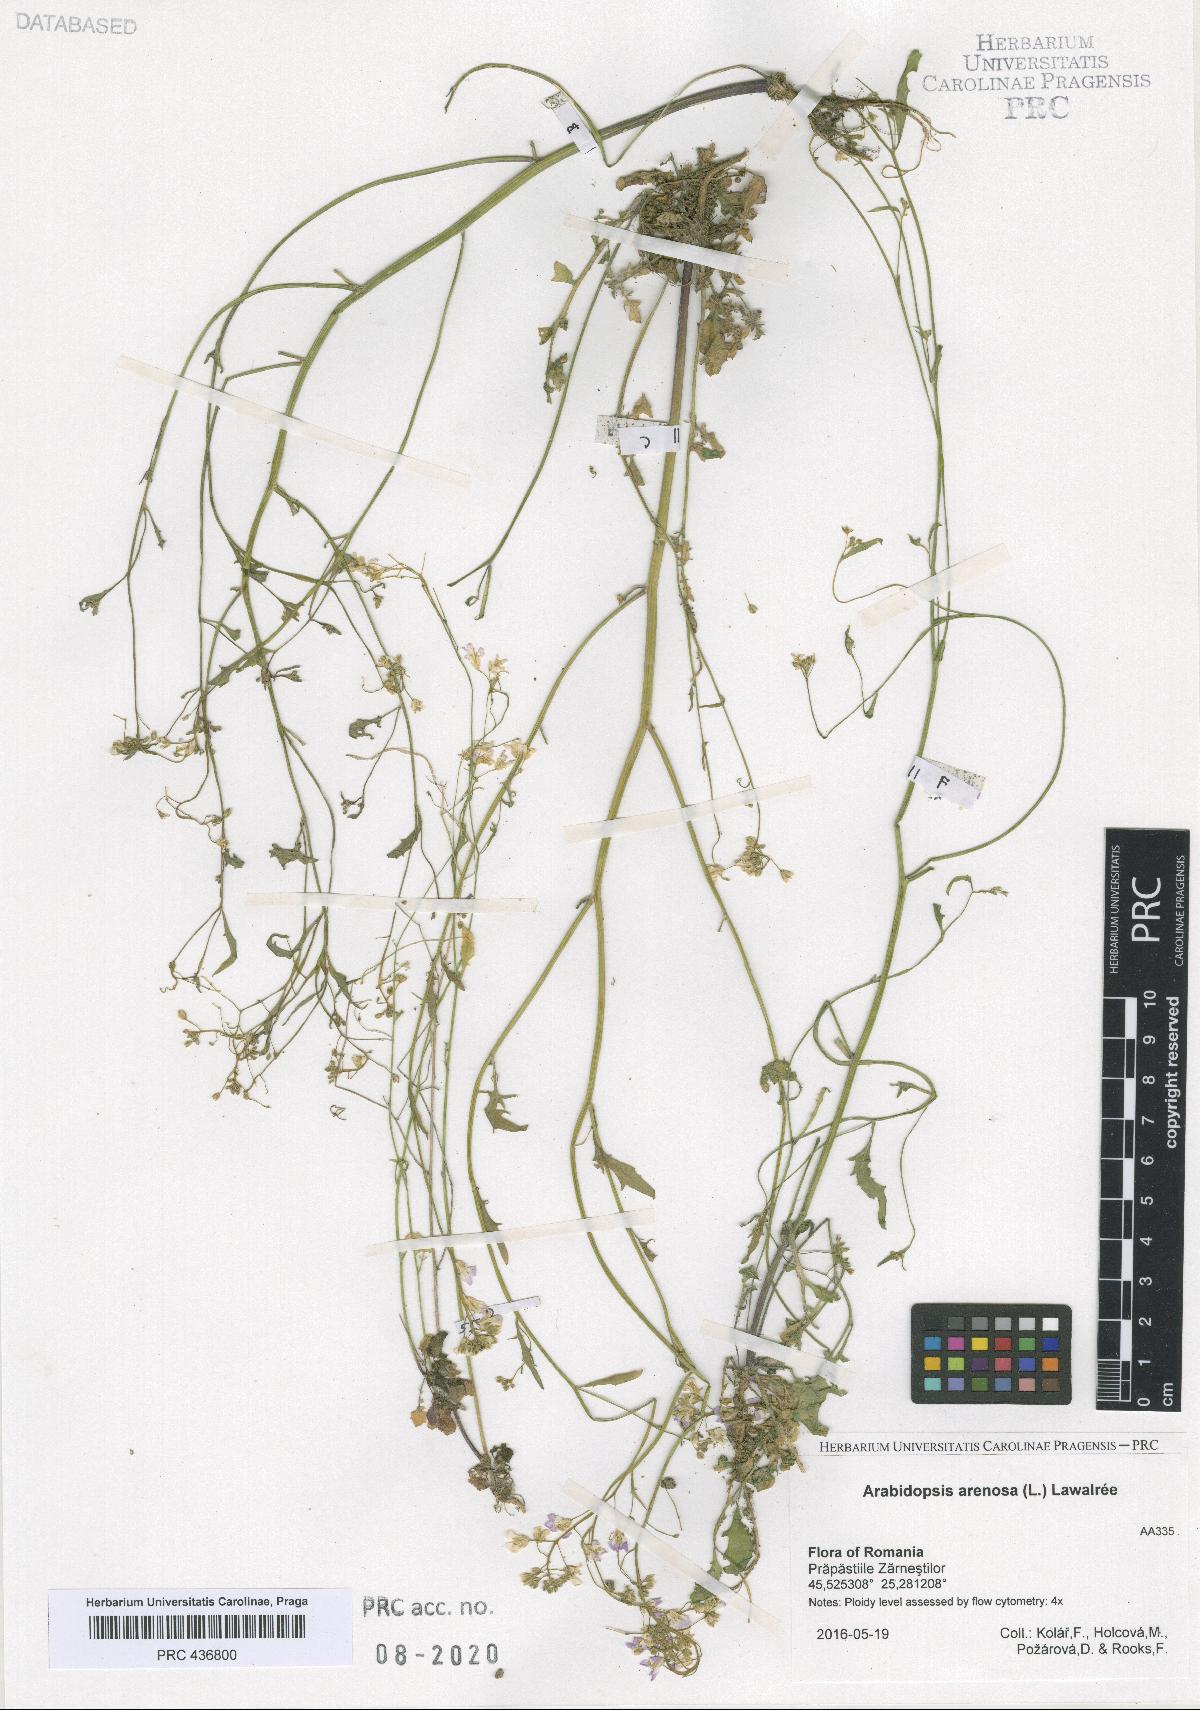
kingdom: Plantae
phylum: Tracheophyta
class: Magnoliopsida
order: Brassicales
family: Brassicaceae
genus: Arabidopsis
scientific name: Arabidopsis arenosa
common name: Sand rock-cress
